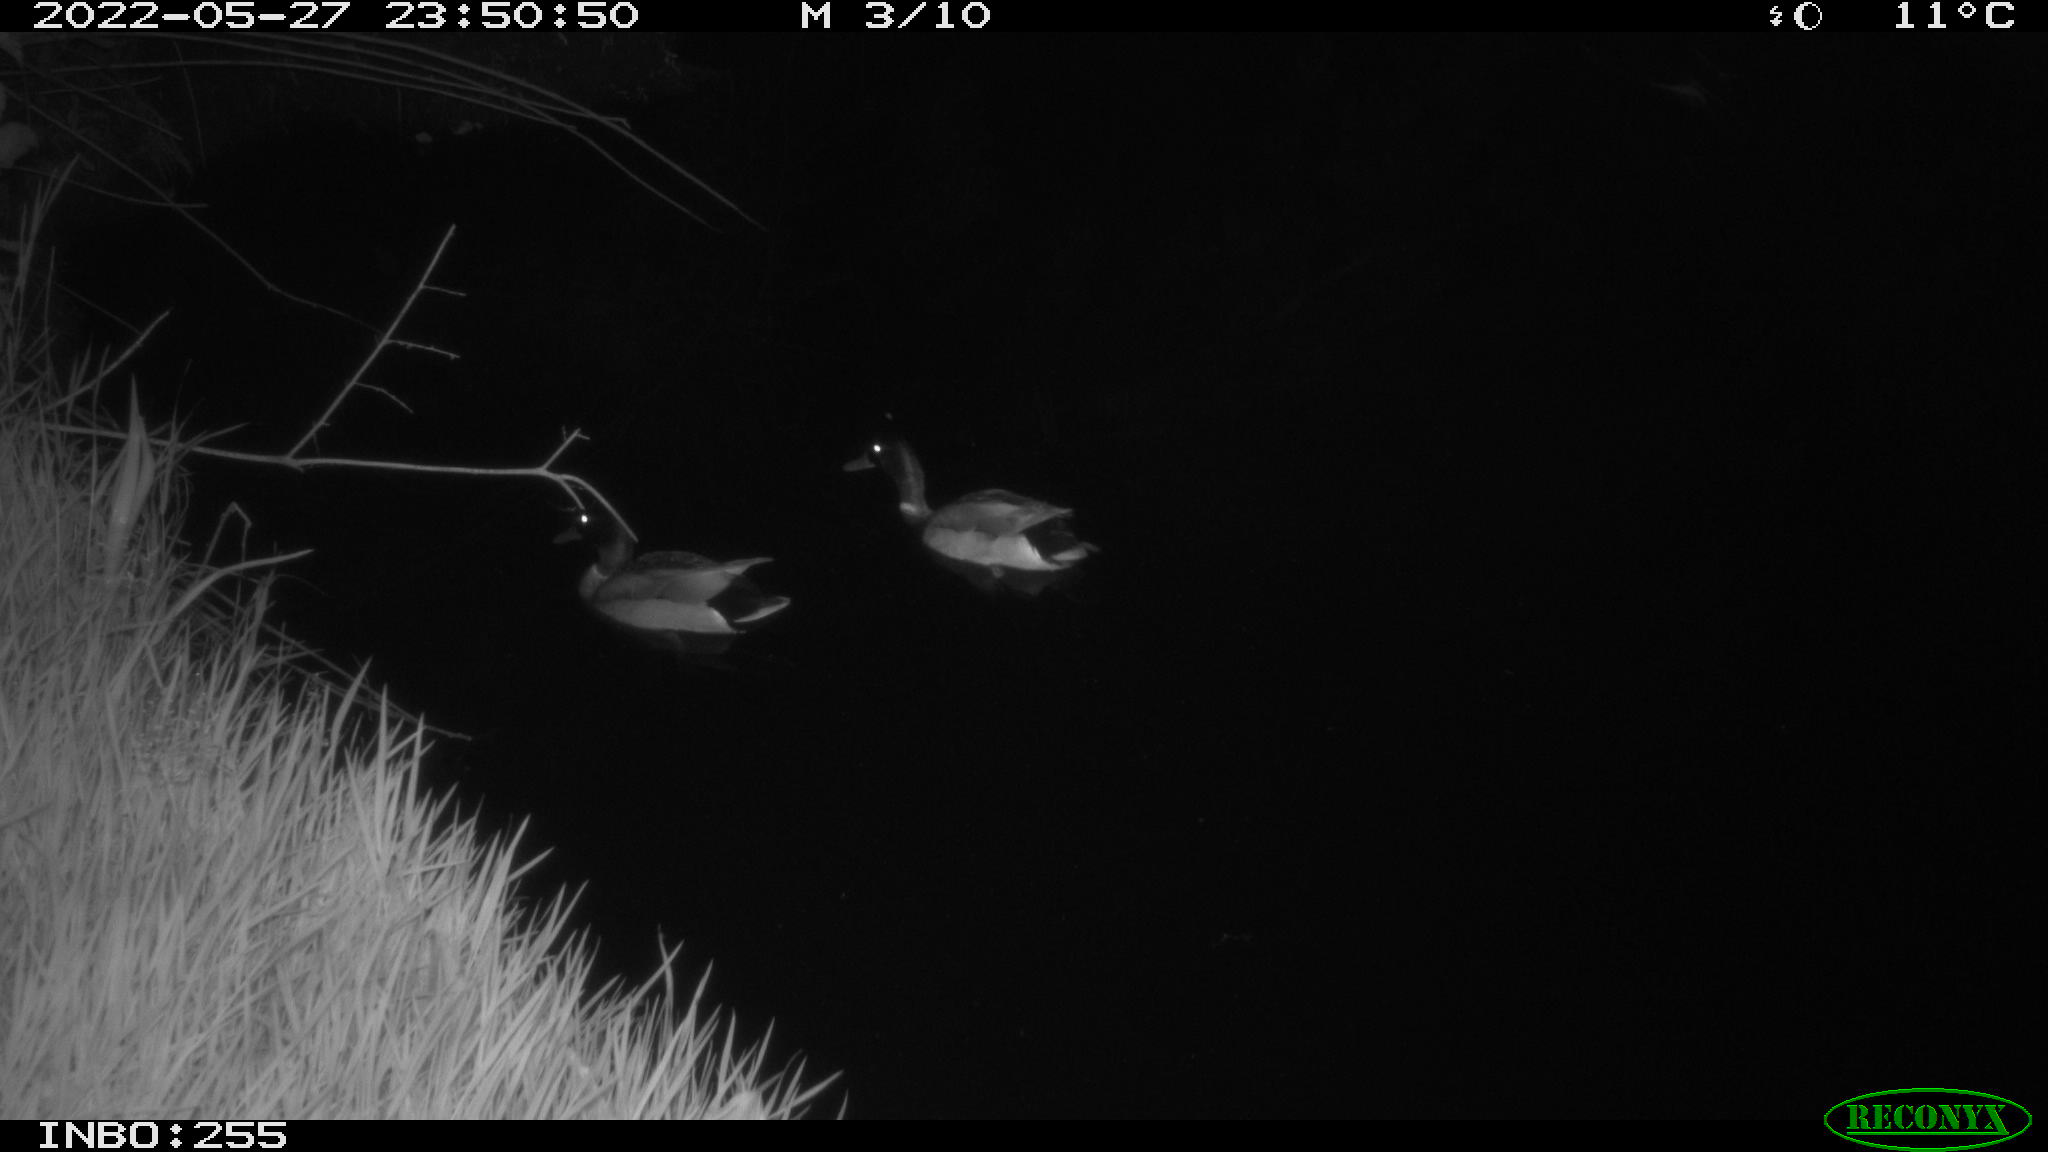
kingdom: Animalia
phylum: Chordata
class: Aves
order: Anseriformes
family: Anatidae
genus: Anas
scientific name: Anas platyrhynchos
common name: Mallard
